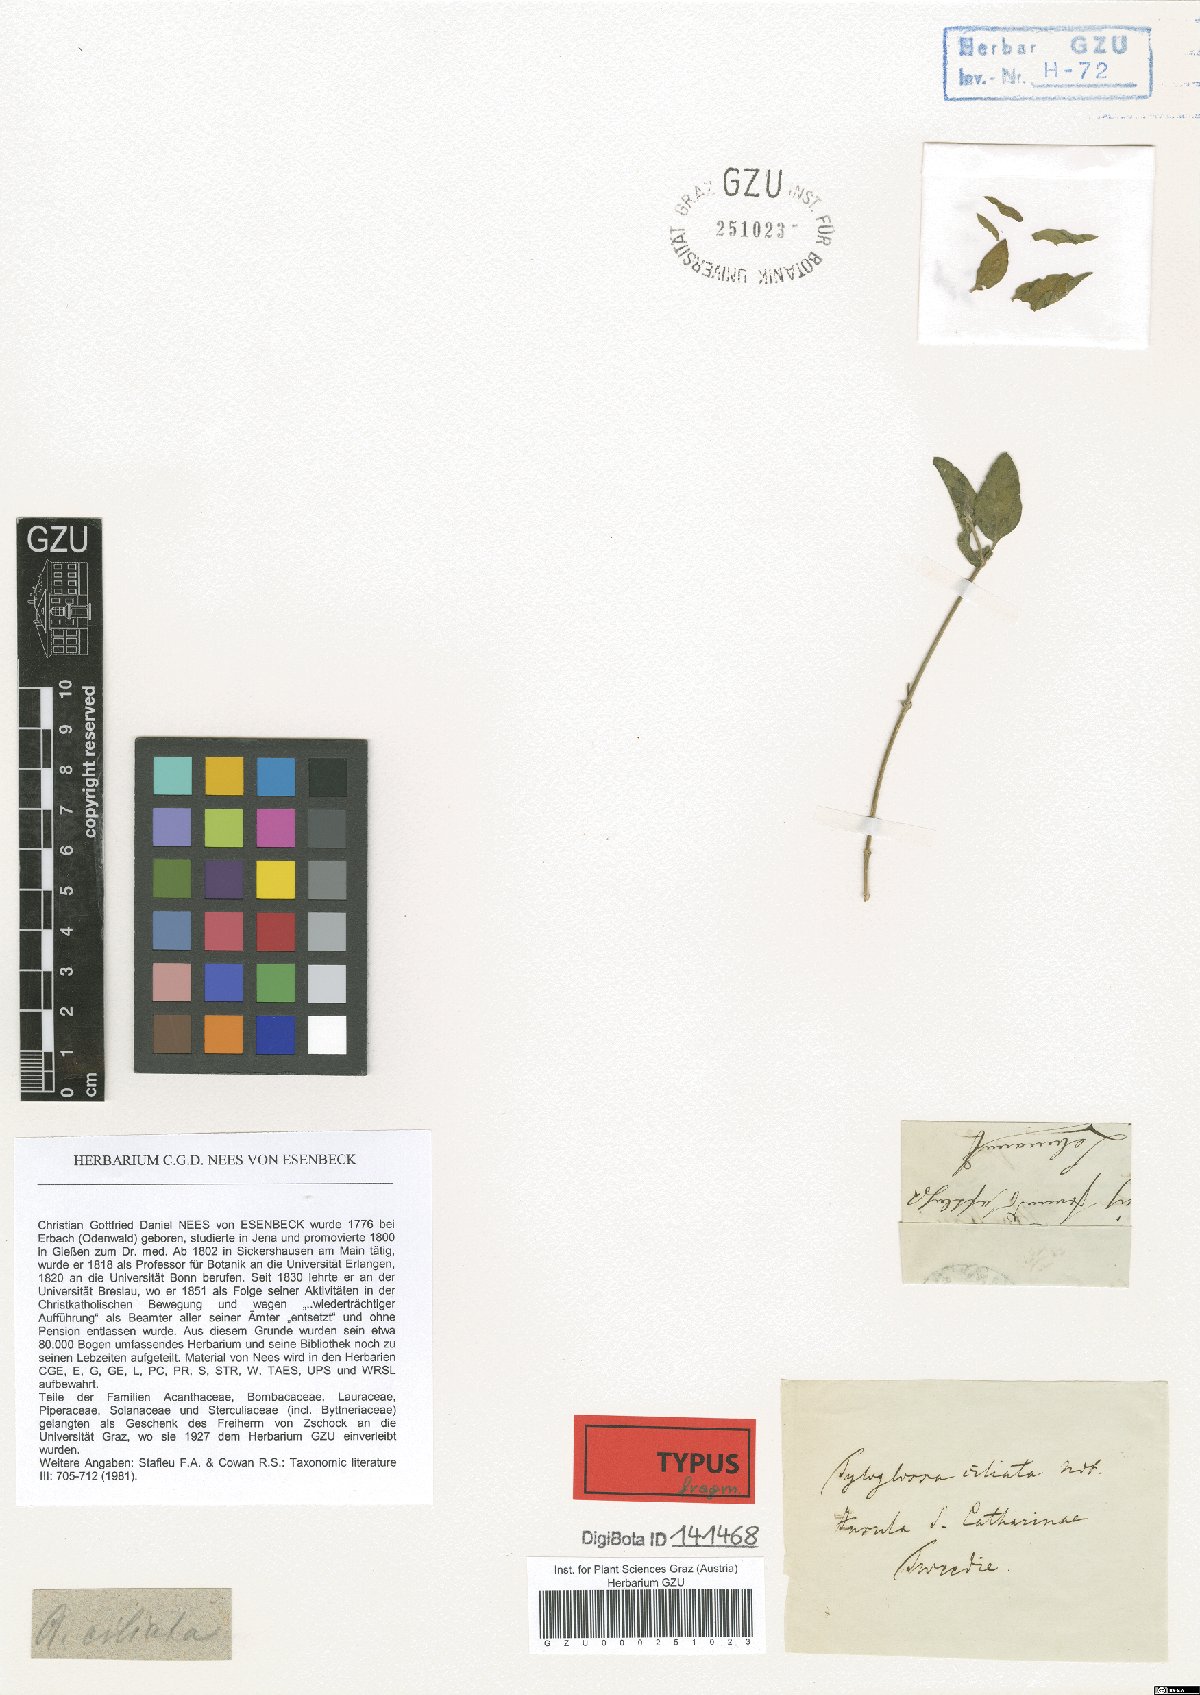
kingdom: Plantae
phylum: Tracheophyta
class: Magnoliopsida
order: Lamiales
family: Acanthaceae
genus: Justicia
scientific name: Justicia radicans
